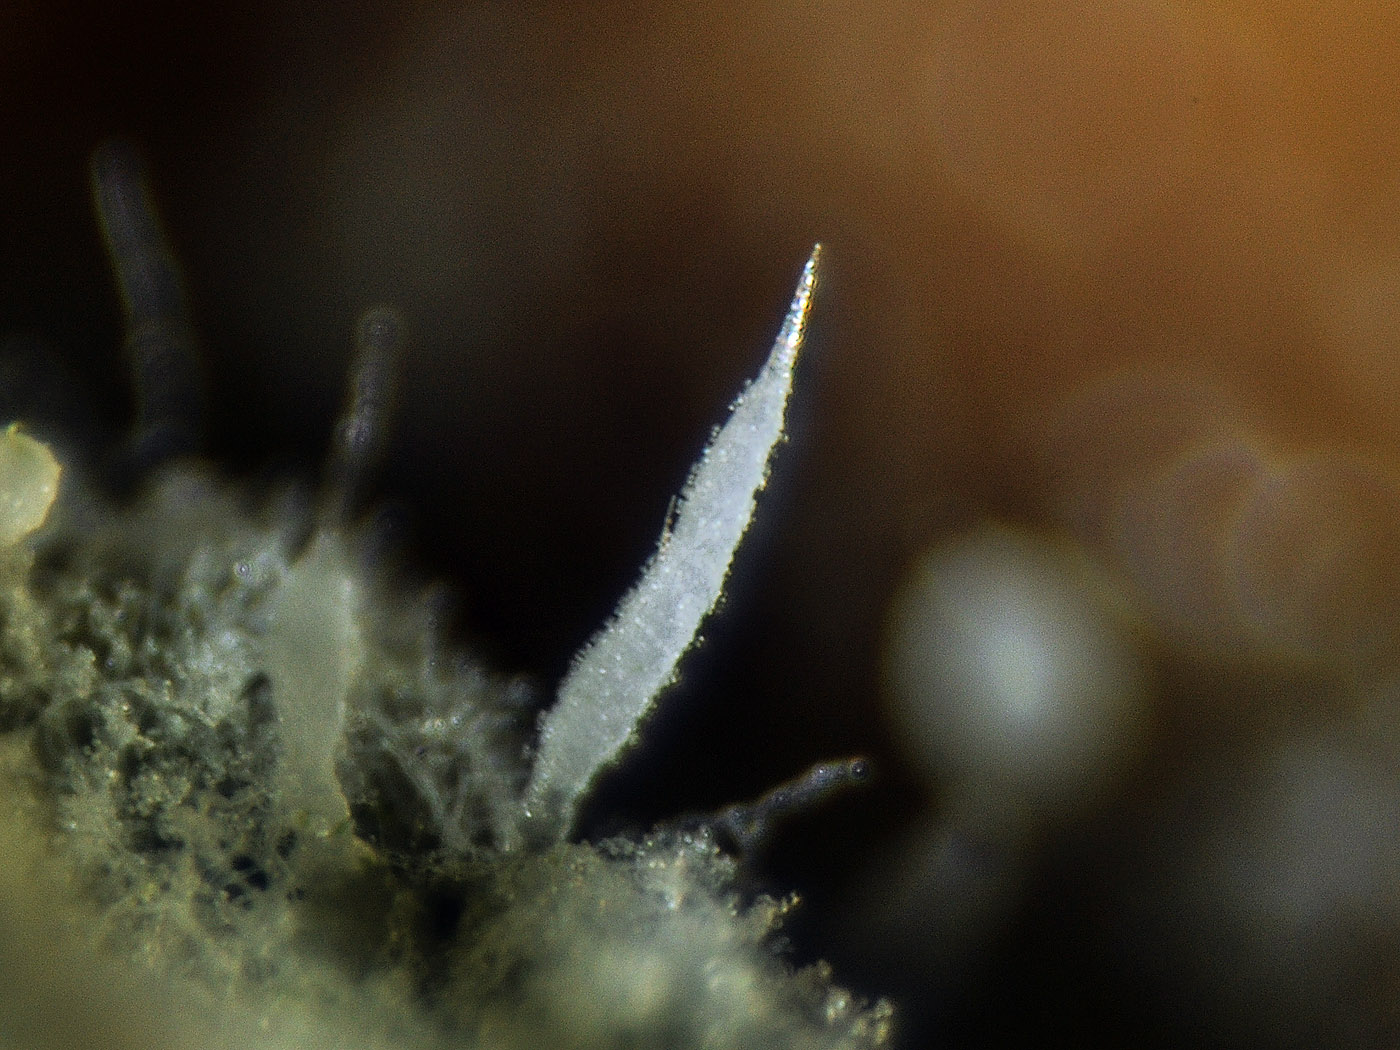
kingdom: Fungi
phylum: Basidiomycota
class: Agaricomycetes
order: Gomphales
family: Gomphaceae
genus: Ceratellopsis
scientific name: Ceratellopsis acuminata
